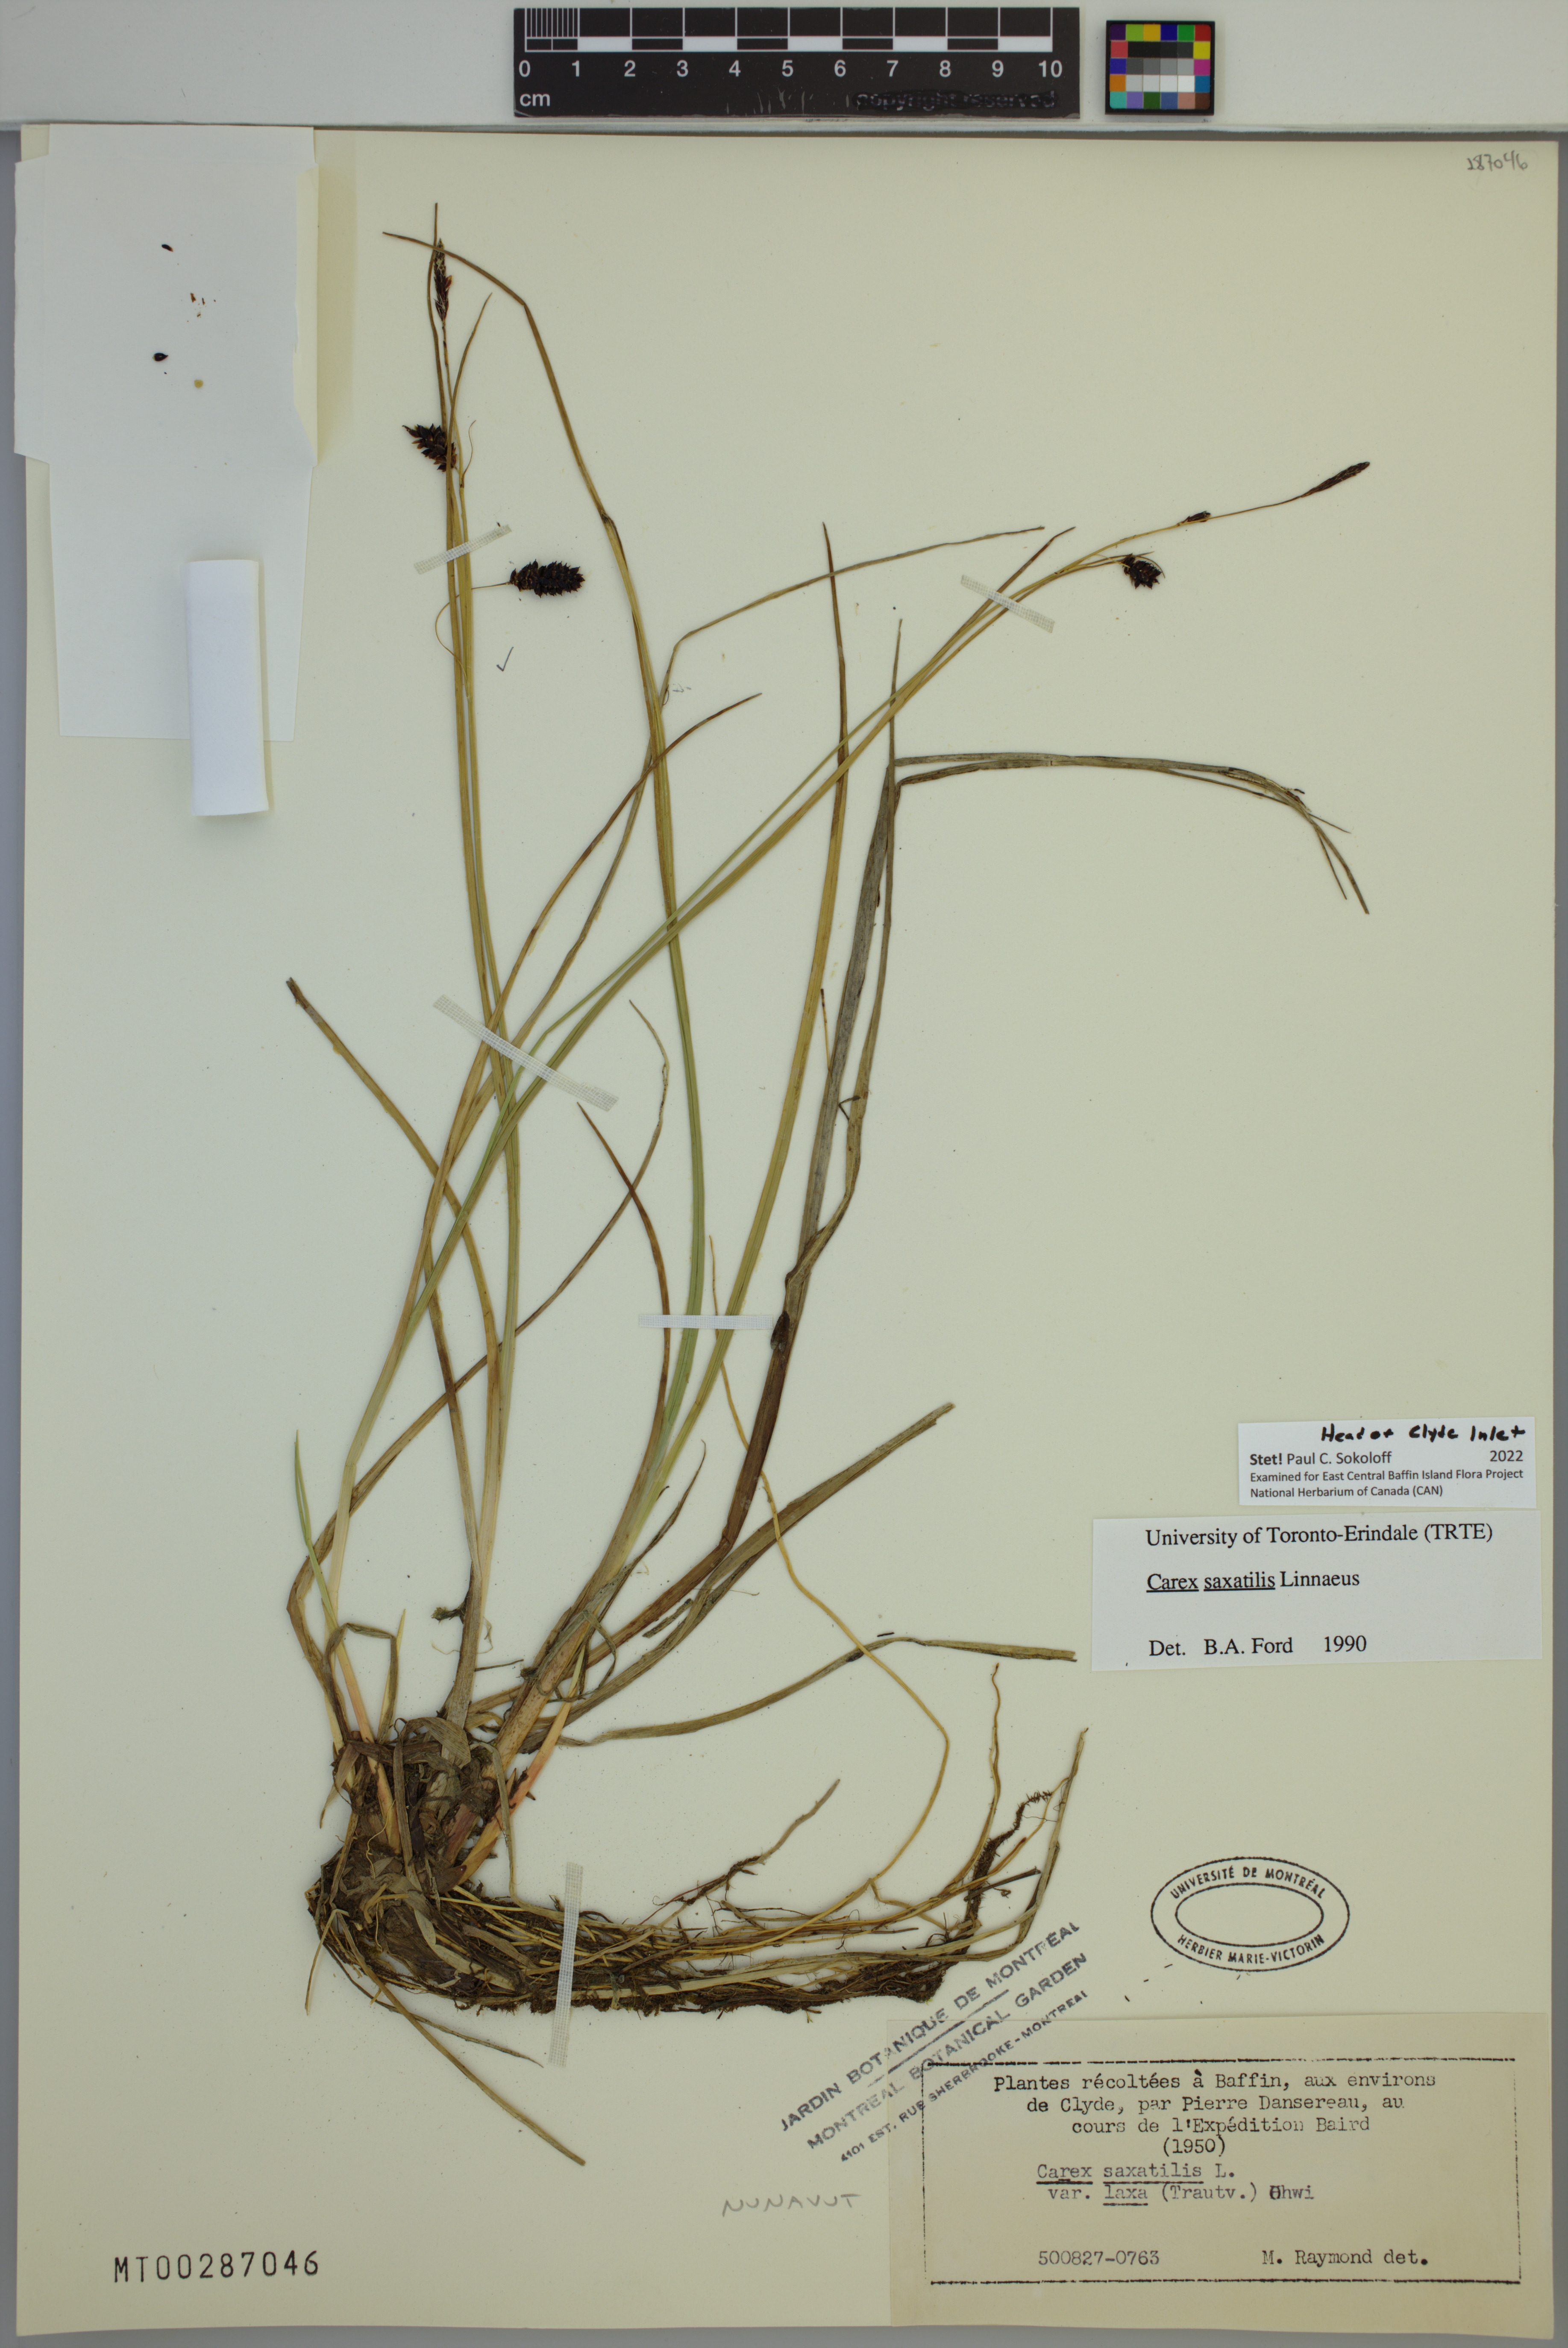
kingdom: Plantae
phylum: Tracheophyta
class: Liliopsida
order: Poales
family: Cyperaceae
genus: Carex
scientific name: Carex saxatilis
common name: Russet sedge
